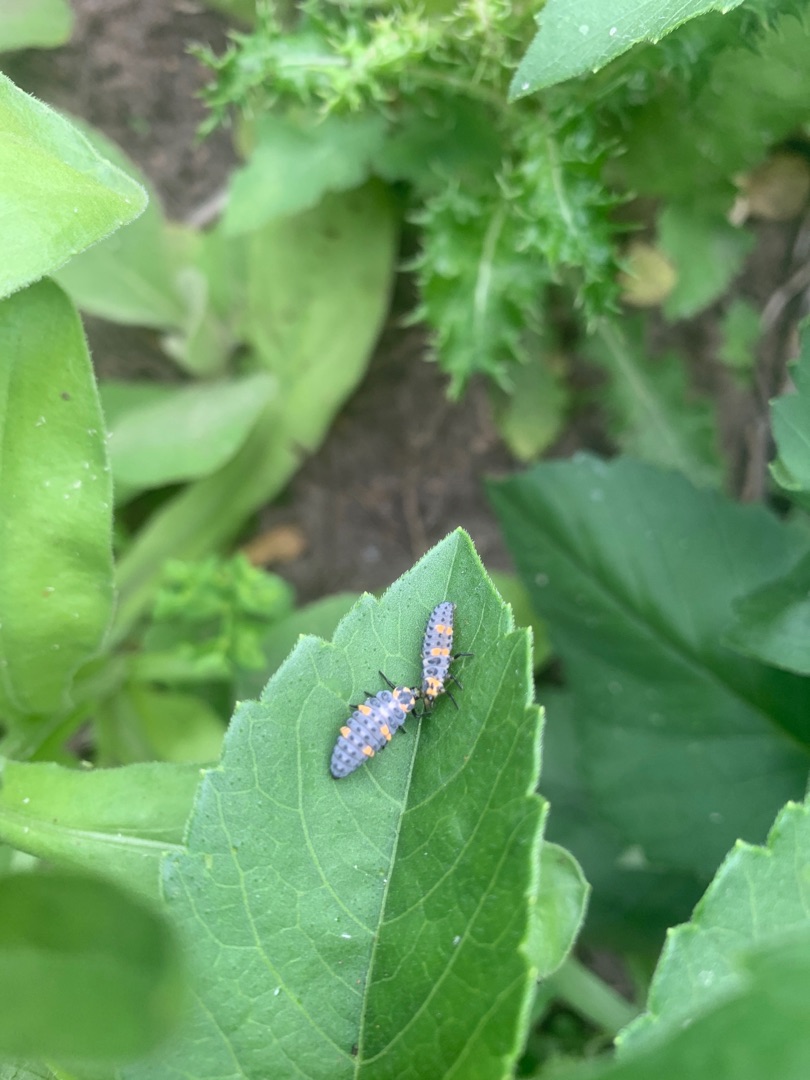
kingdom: Animalia
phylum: Arthropoda
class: Insecta
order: Coleoptera
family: Coccinellidae
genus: Coccinella
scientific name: Coccinella septempunctata
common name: Syvplettet mariehøne
